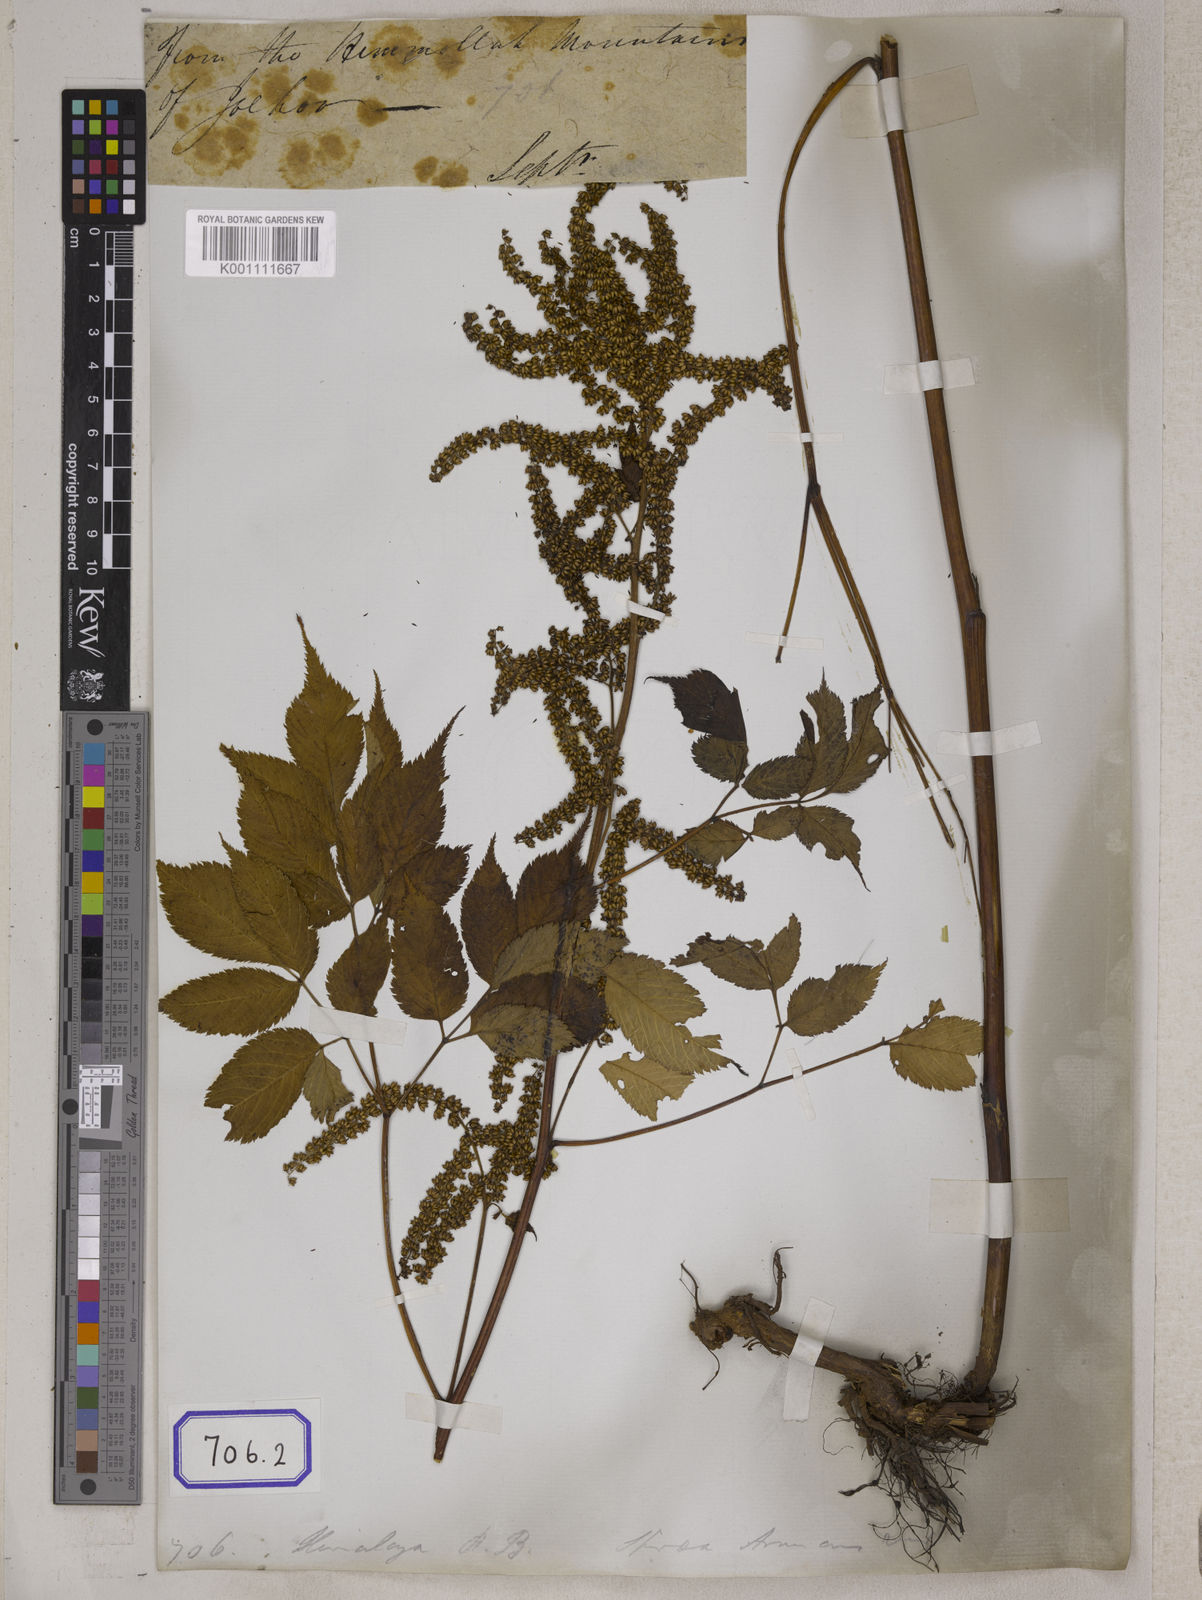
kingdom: Plantae
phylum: Tracheophyta
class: Magnoliopsida
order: Rosales
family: Rosaceae
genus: Aruncus
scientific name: Aruncus sylvester
